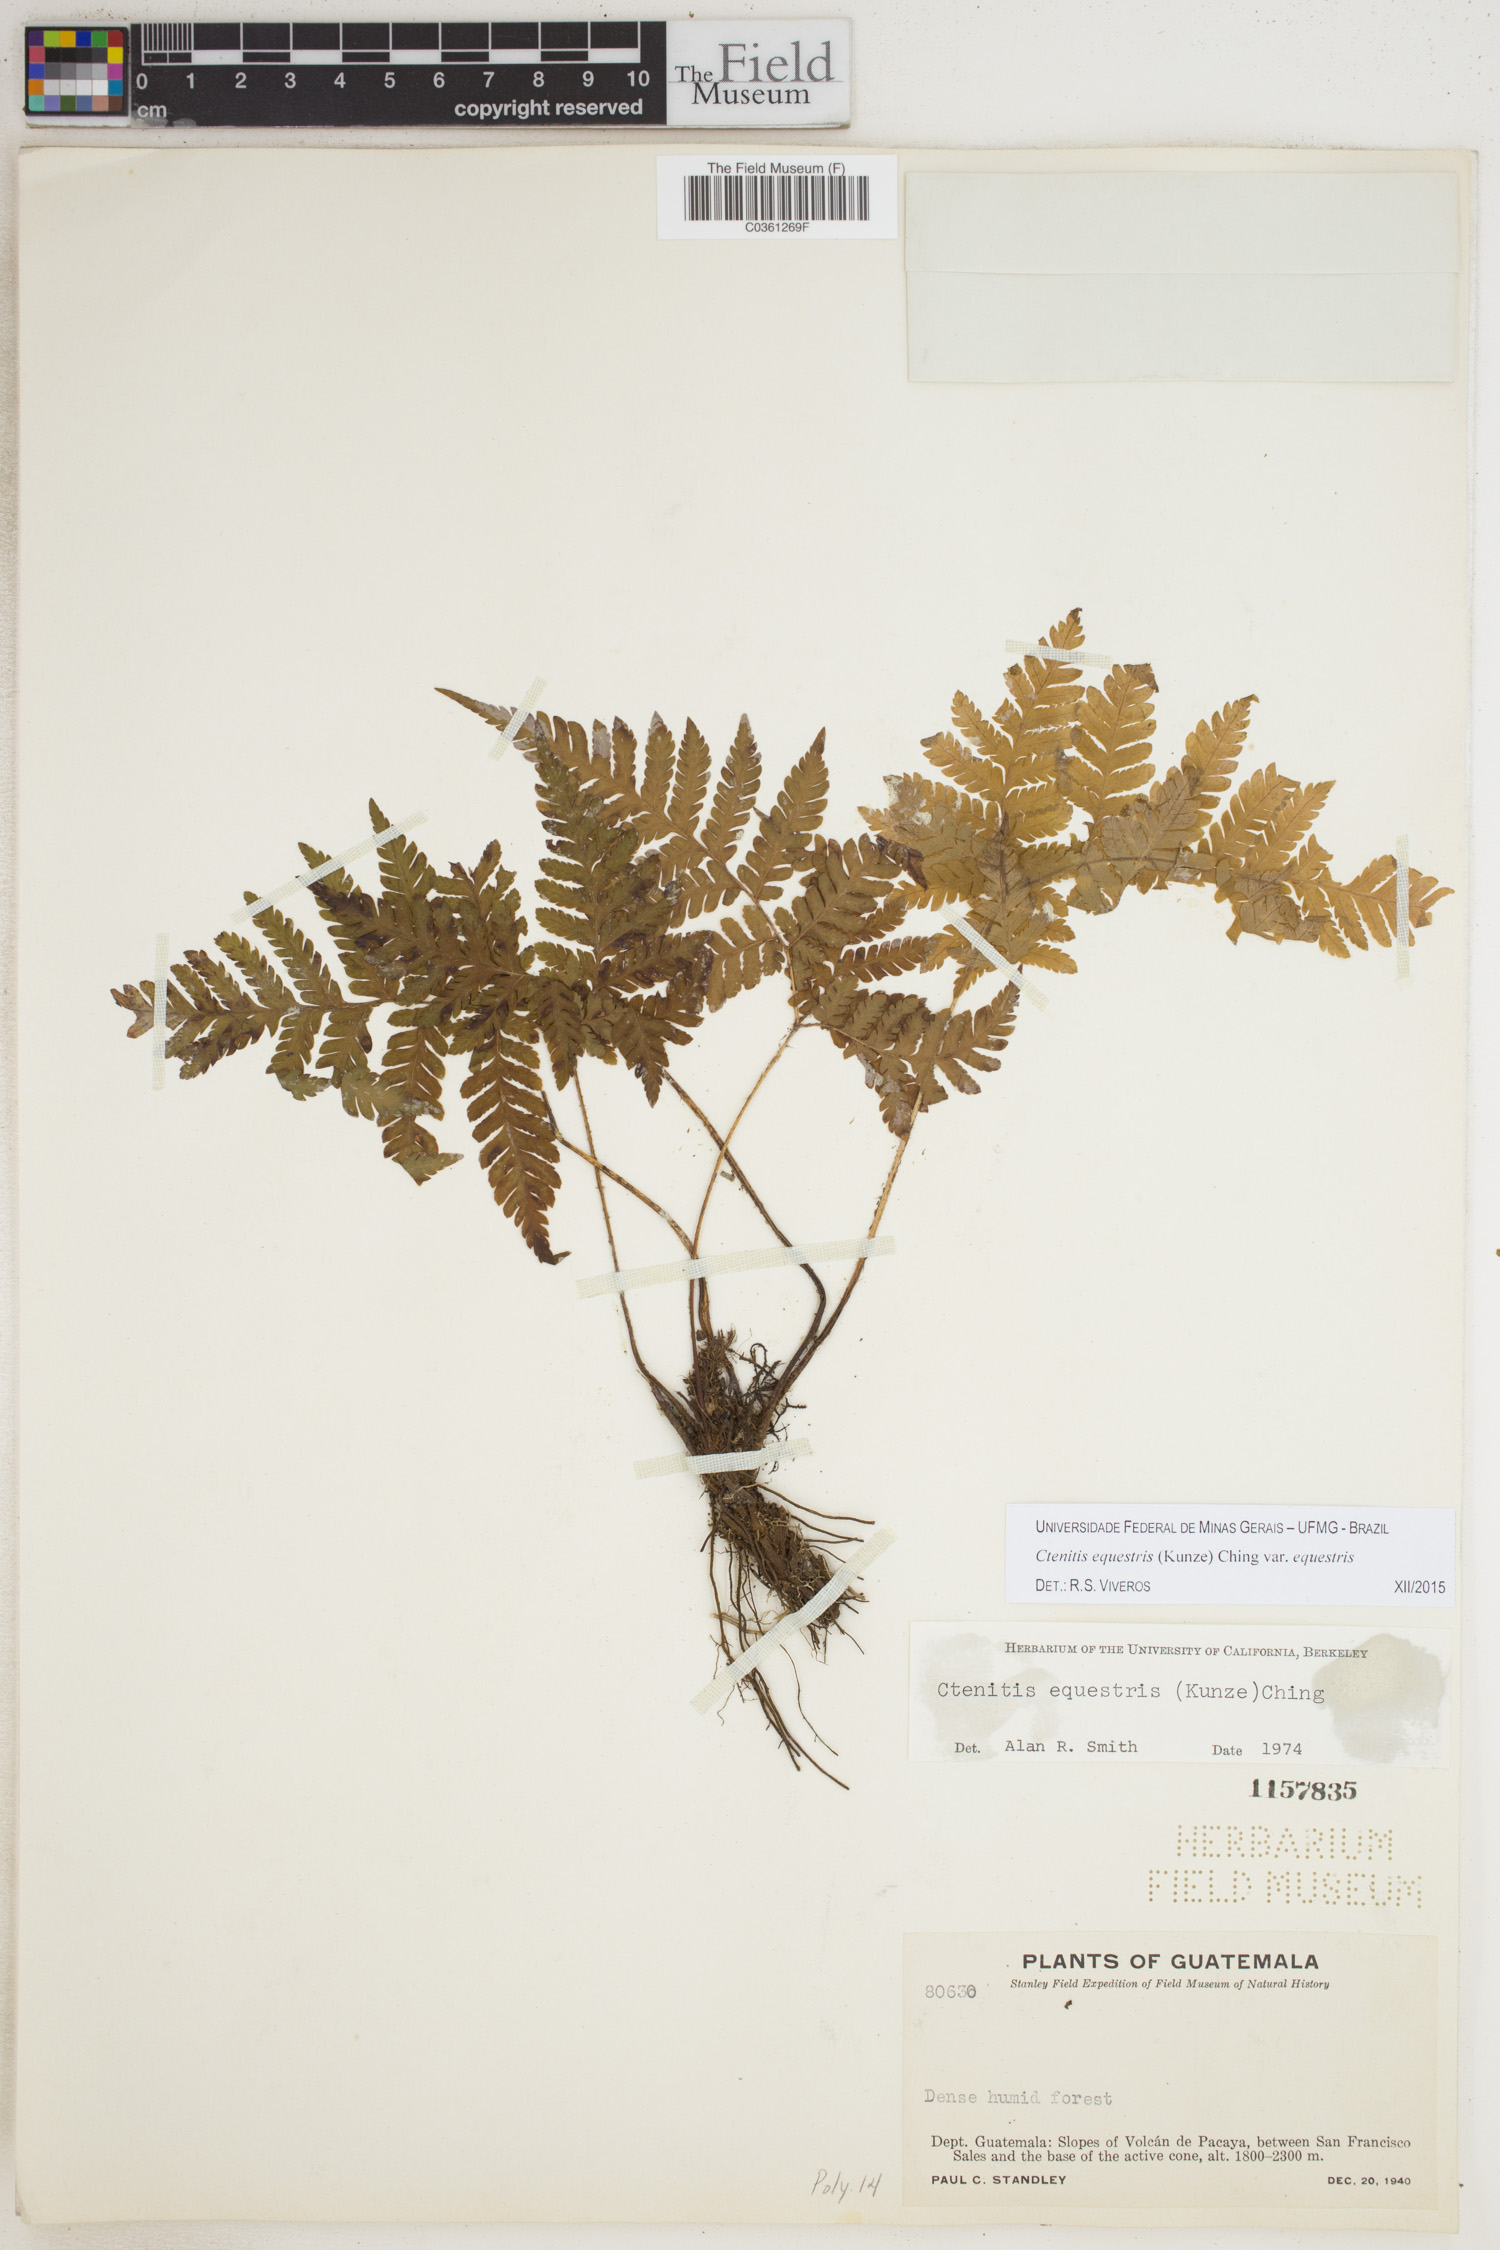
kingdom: Plantae
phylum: Tracheophyta
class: Polypodiopsida
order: Polypodiales
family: Dryopteridaceae
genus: Ctenitis
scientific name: Ctenitis equestris
